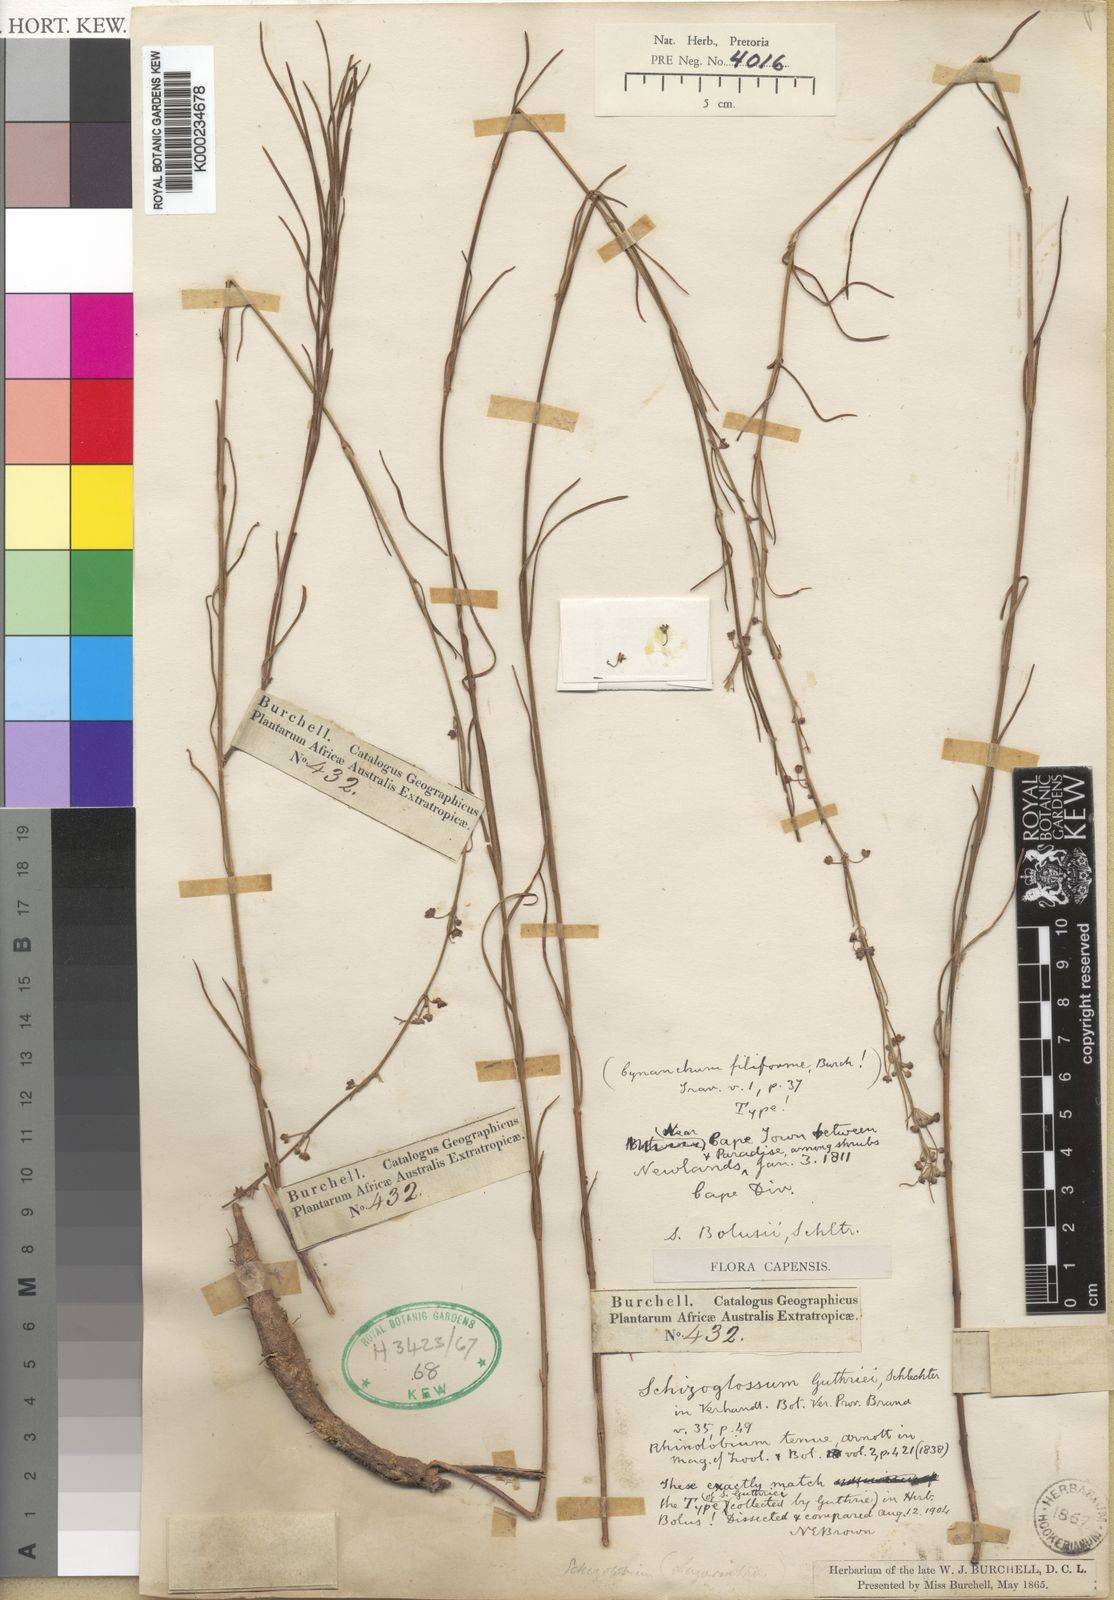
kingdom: Plantae
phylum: Tracheophyta
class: Magnoliopsida
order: Gentianales
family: Apocynaceae
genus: Aspidoglossum
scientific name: Aspidoglossum gracile
